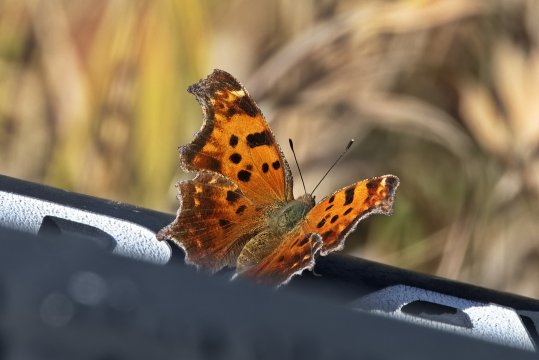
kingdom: Animalia
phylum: Arthropoda
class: Insecta
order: Lepidoptera
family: Nymphalidae
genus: Polygonia
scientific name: Polygonia comma
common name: Eastern Comma
